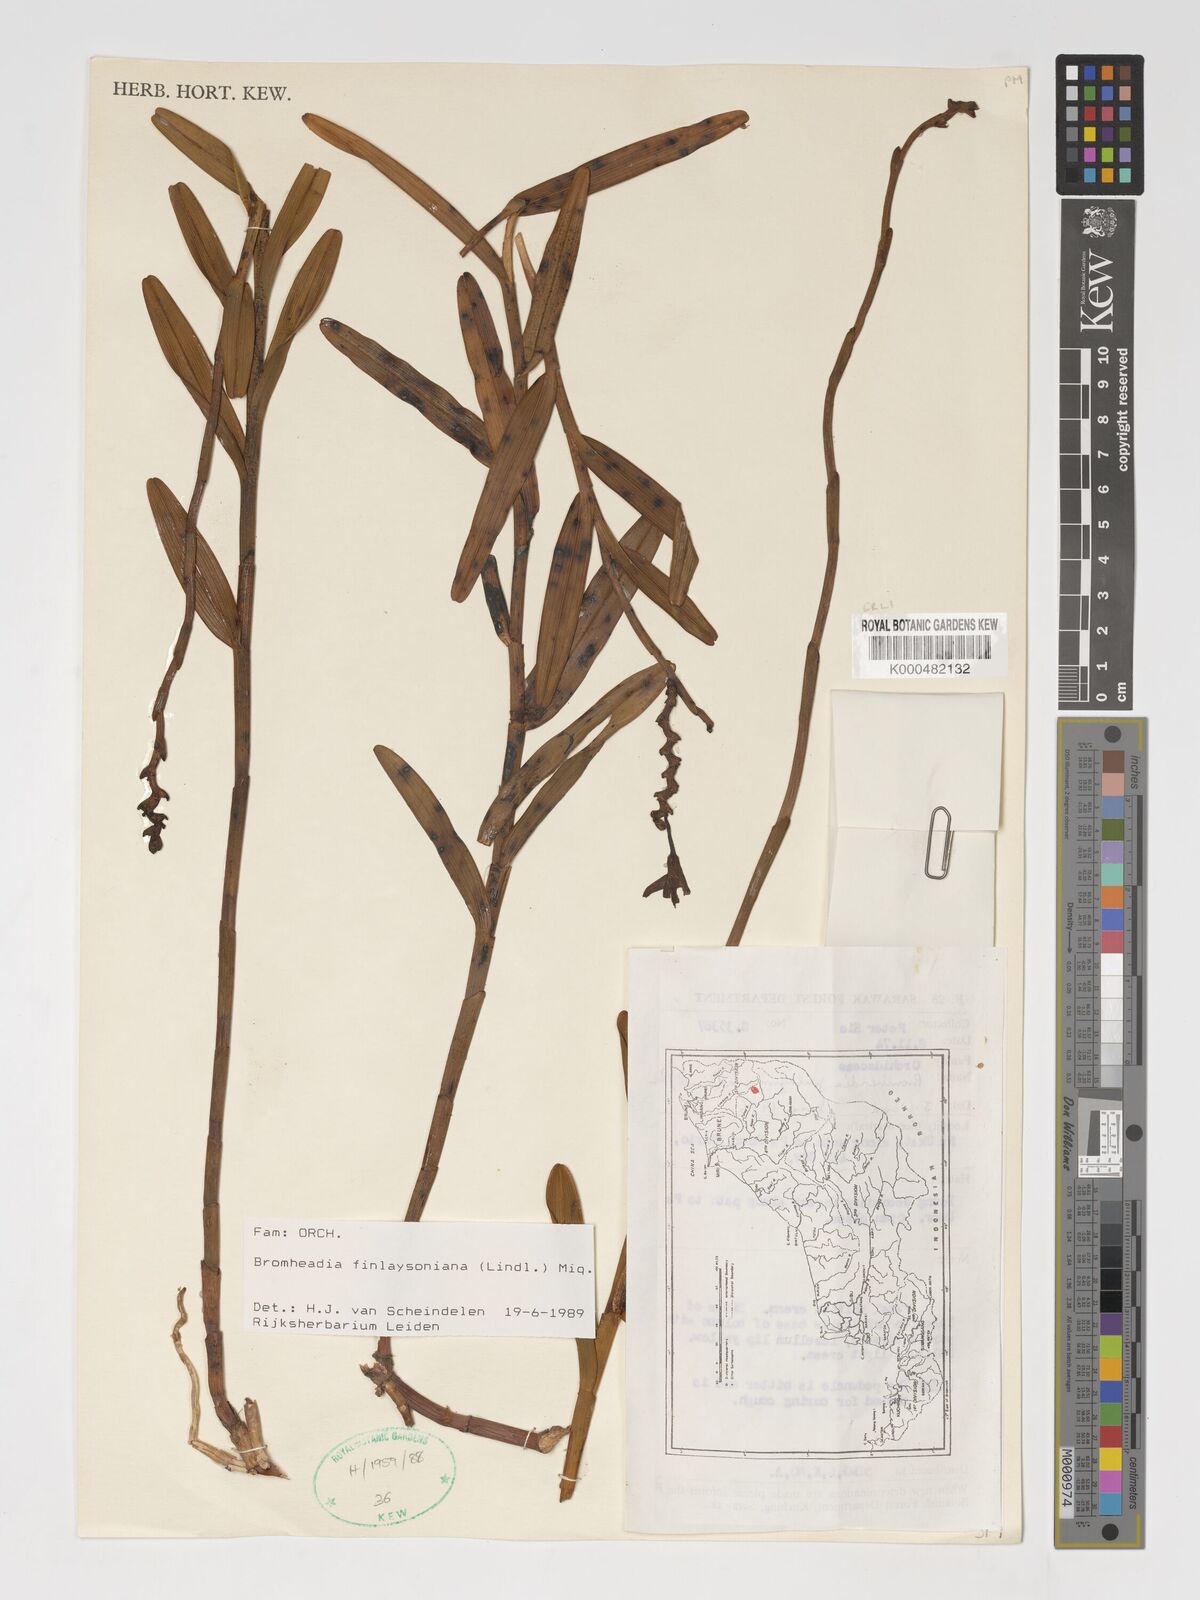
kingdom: Plantae
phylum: Tracheophyta
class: Liliopsida
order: Asparagales
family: Orchidaceae
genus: Bromheadia
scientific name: Bromheadia finlaysoniana
